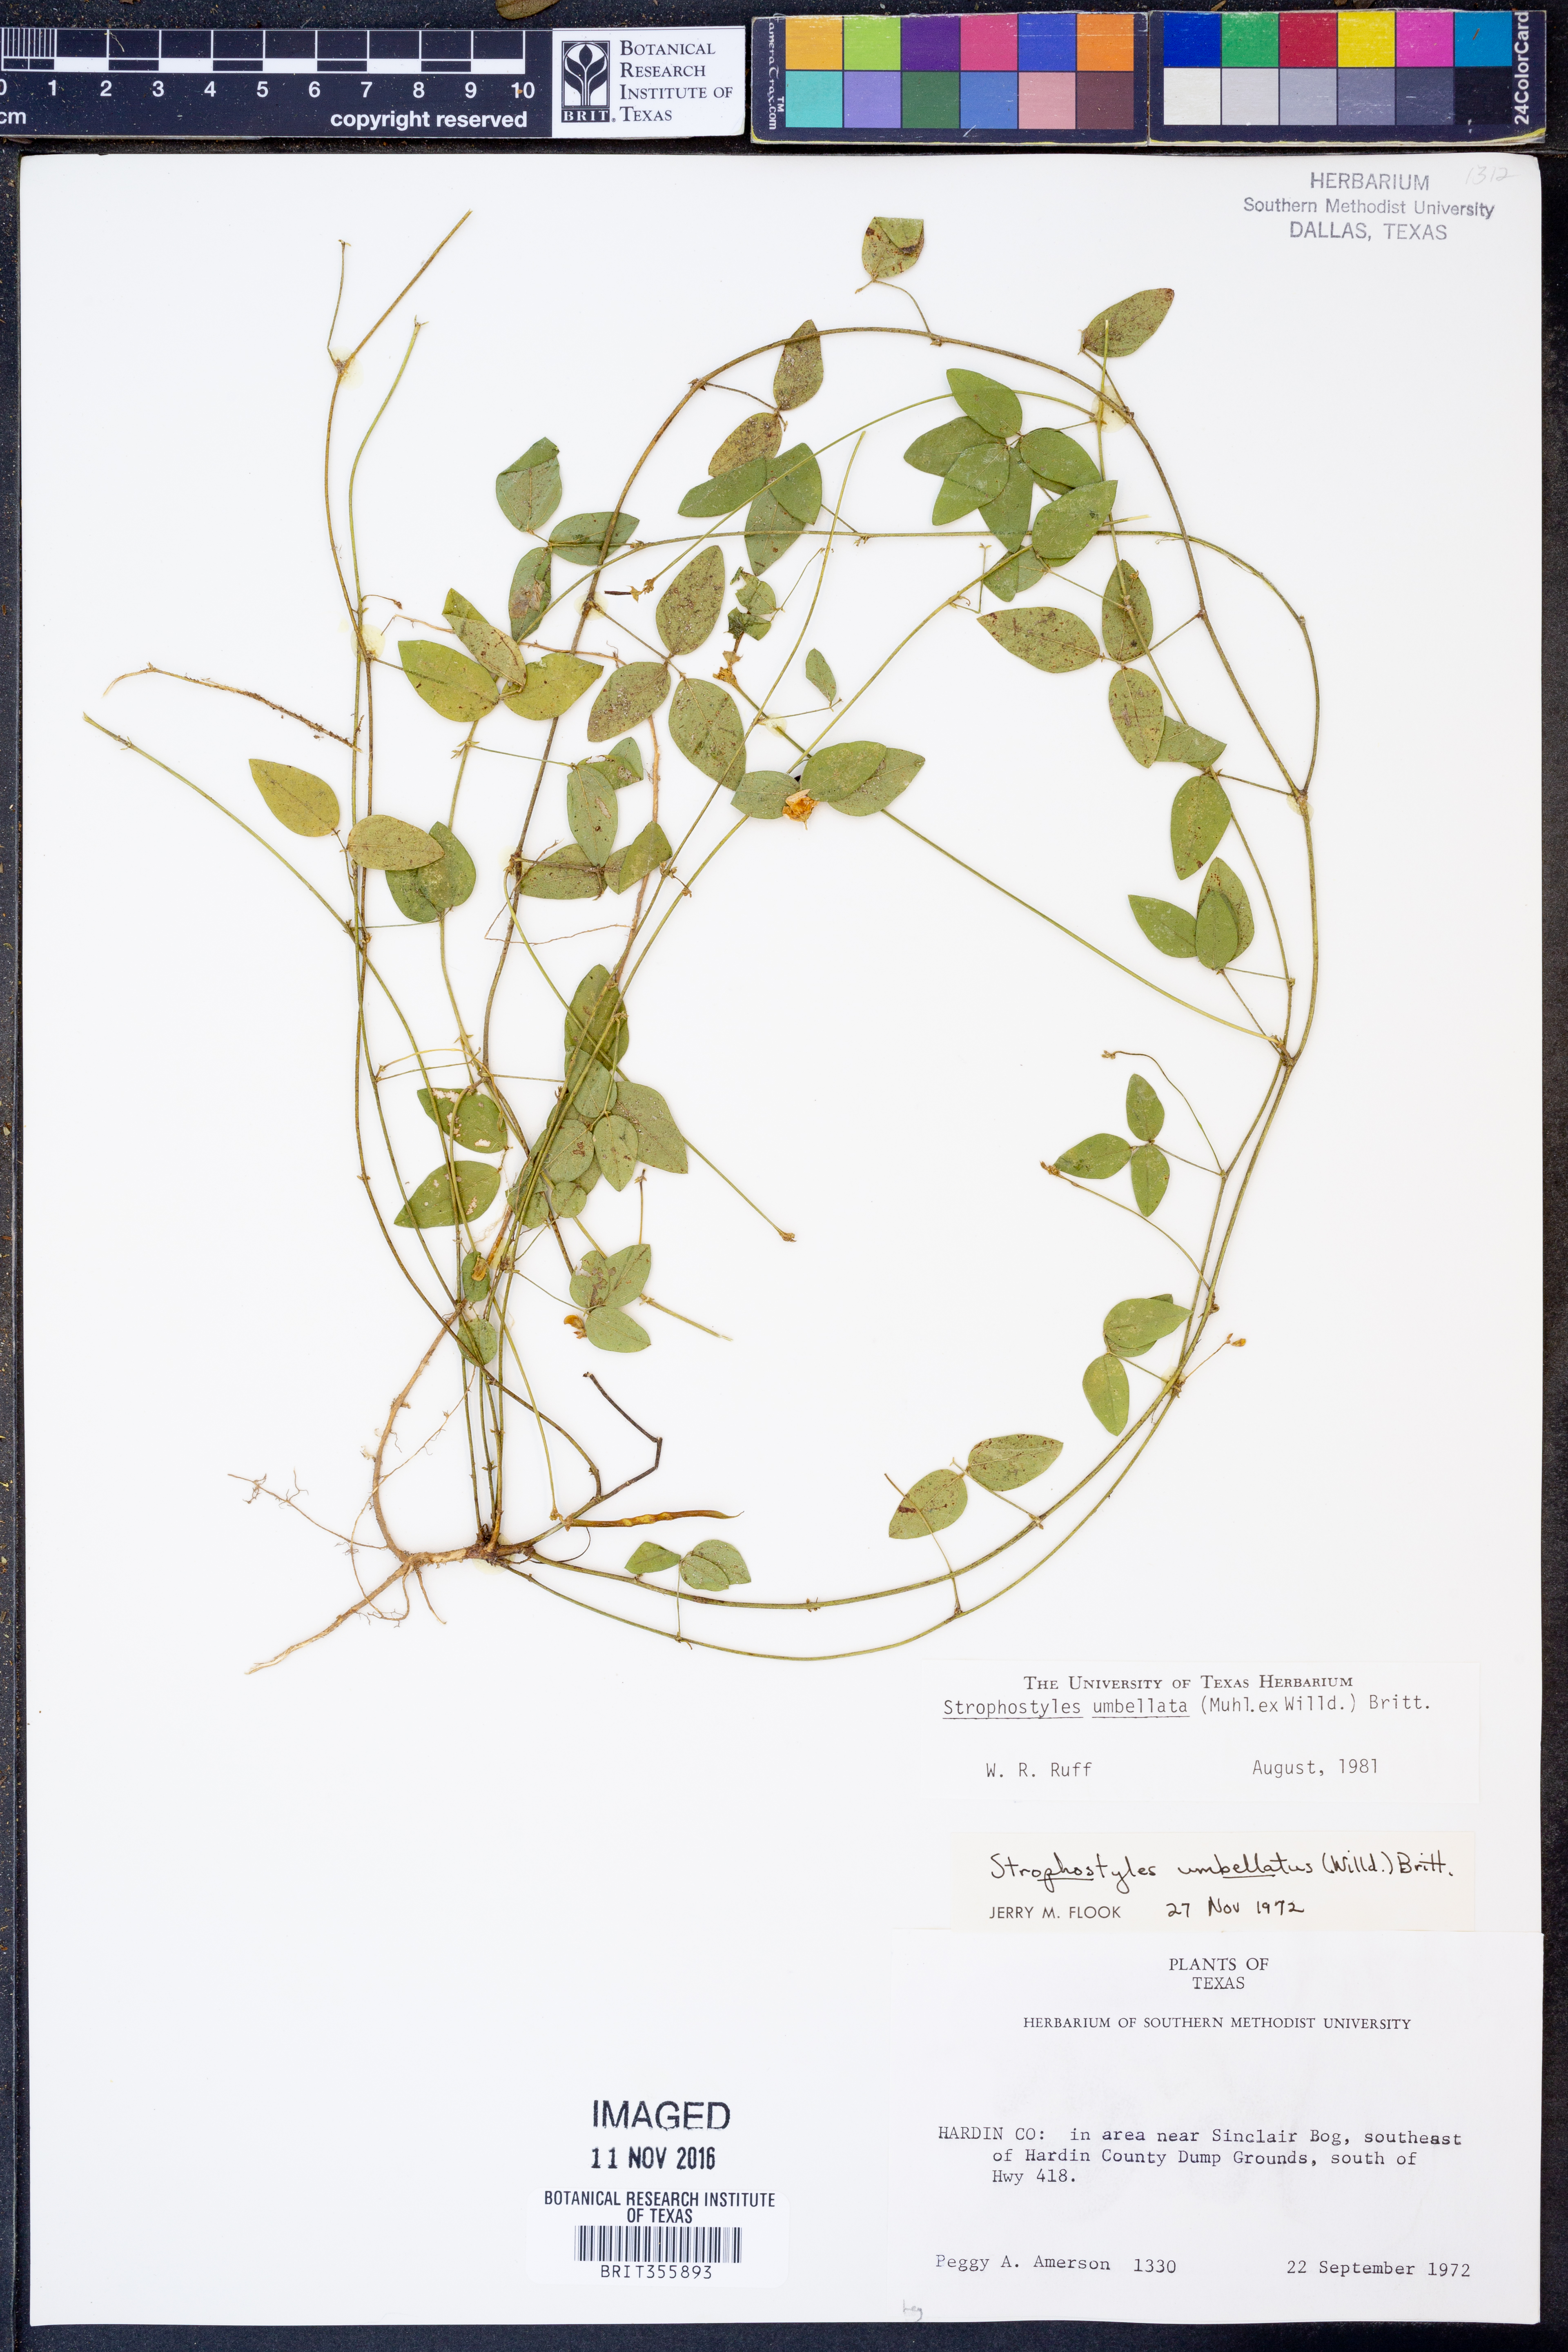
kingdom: Plantae
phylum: Tracheophyta
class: Magnoliopsida
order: Fabales
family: Fabaceae
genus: Strophostyles
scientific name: Strophostyles umbellata
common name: Perennial wild bean
